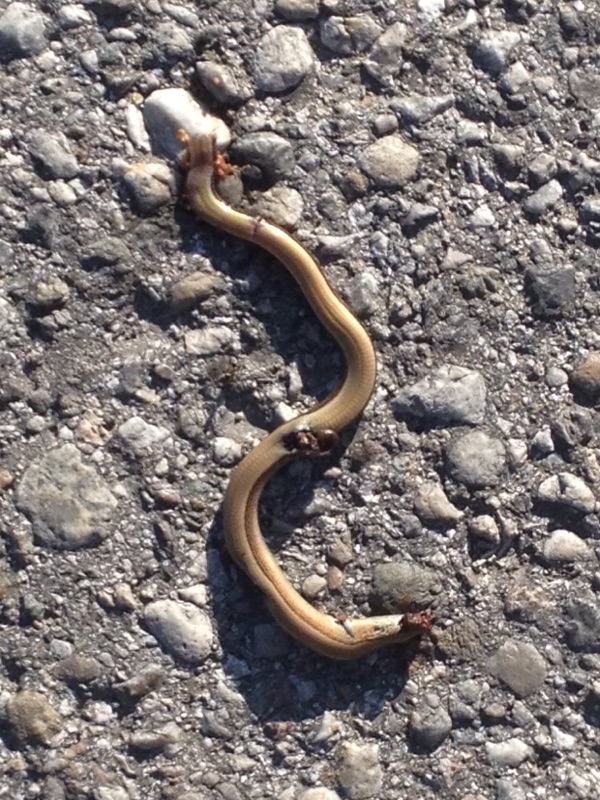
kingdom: Animalia
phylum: Chordata
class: Squamata
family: Anguidae
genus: Anguis
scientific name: Anguis fragilis
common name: Slow worm
